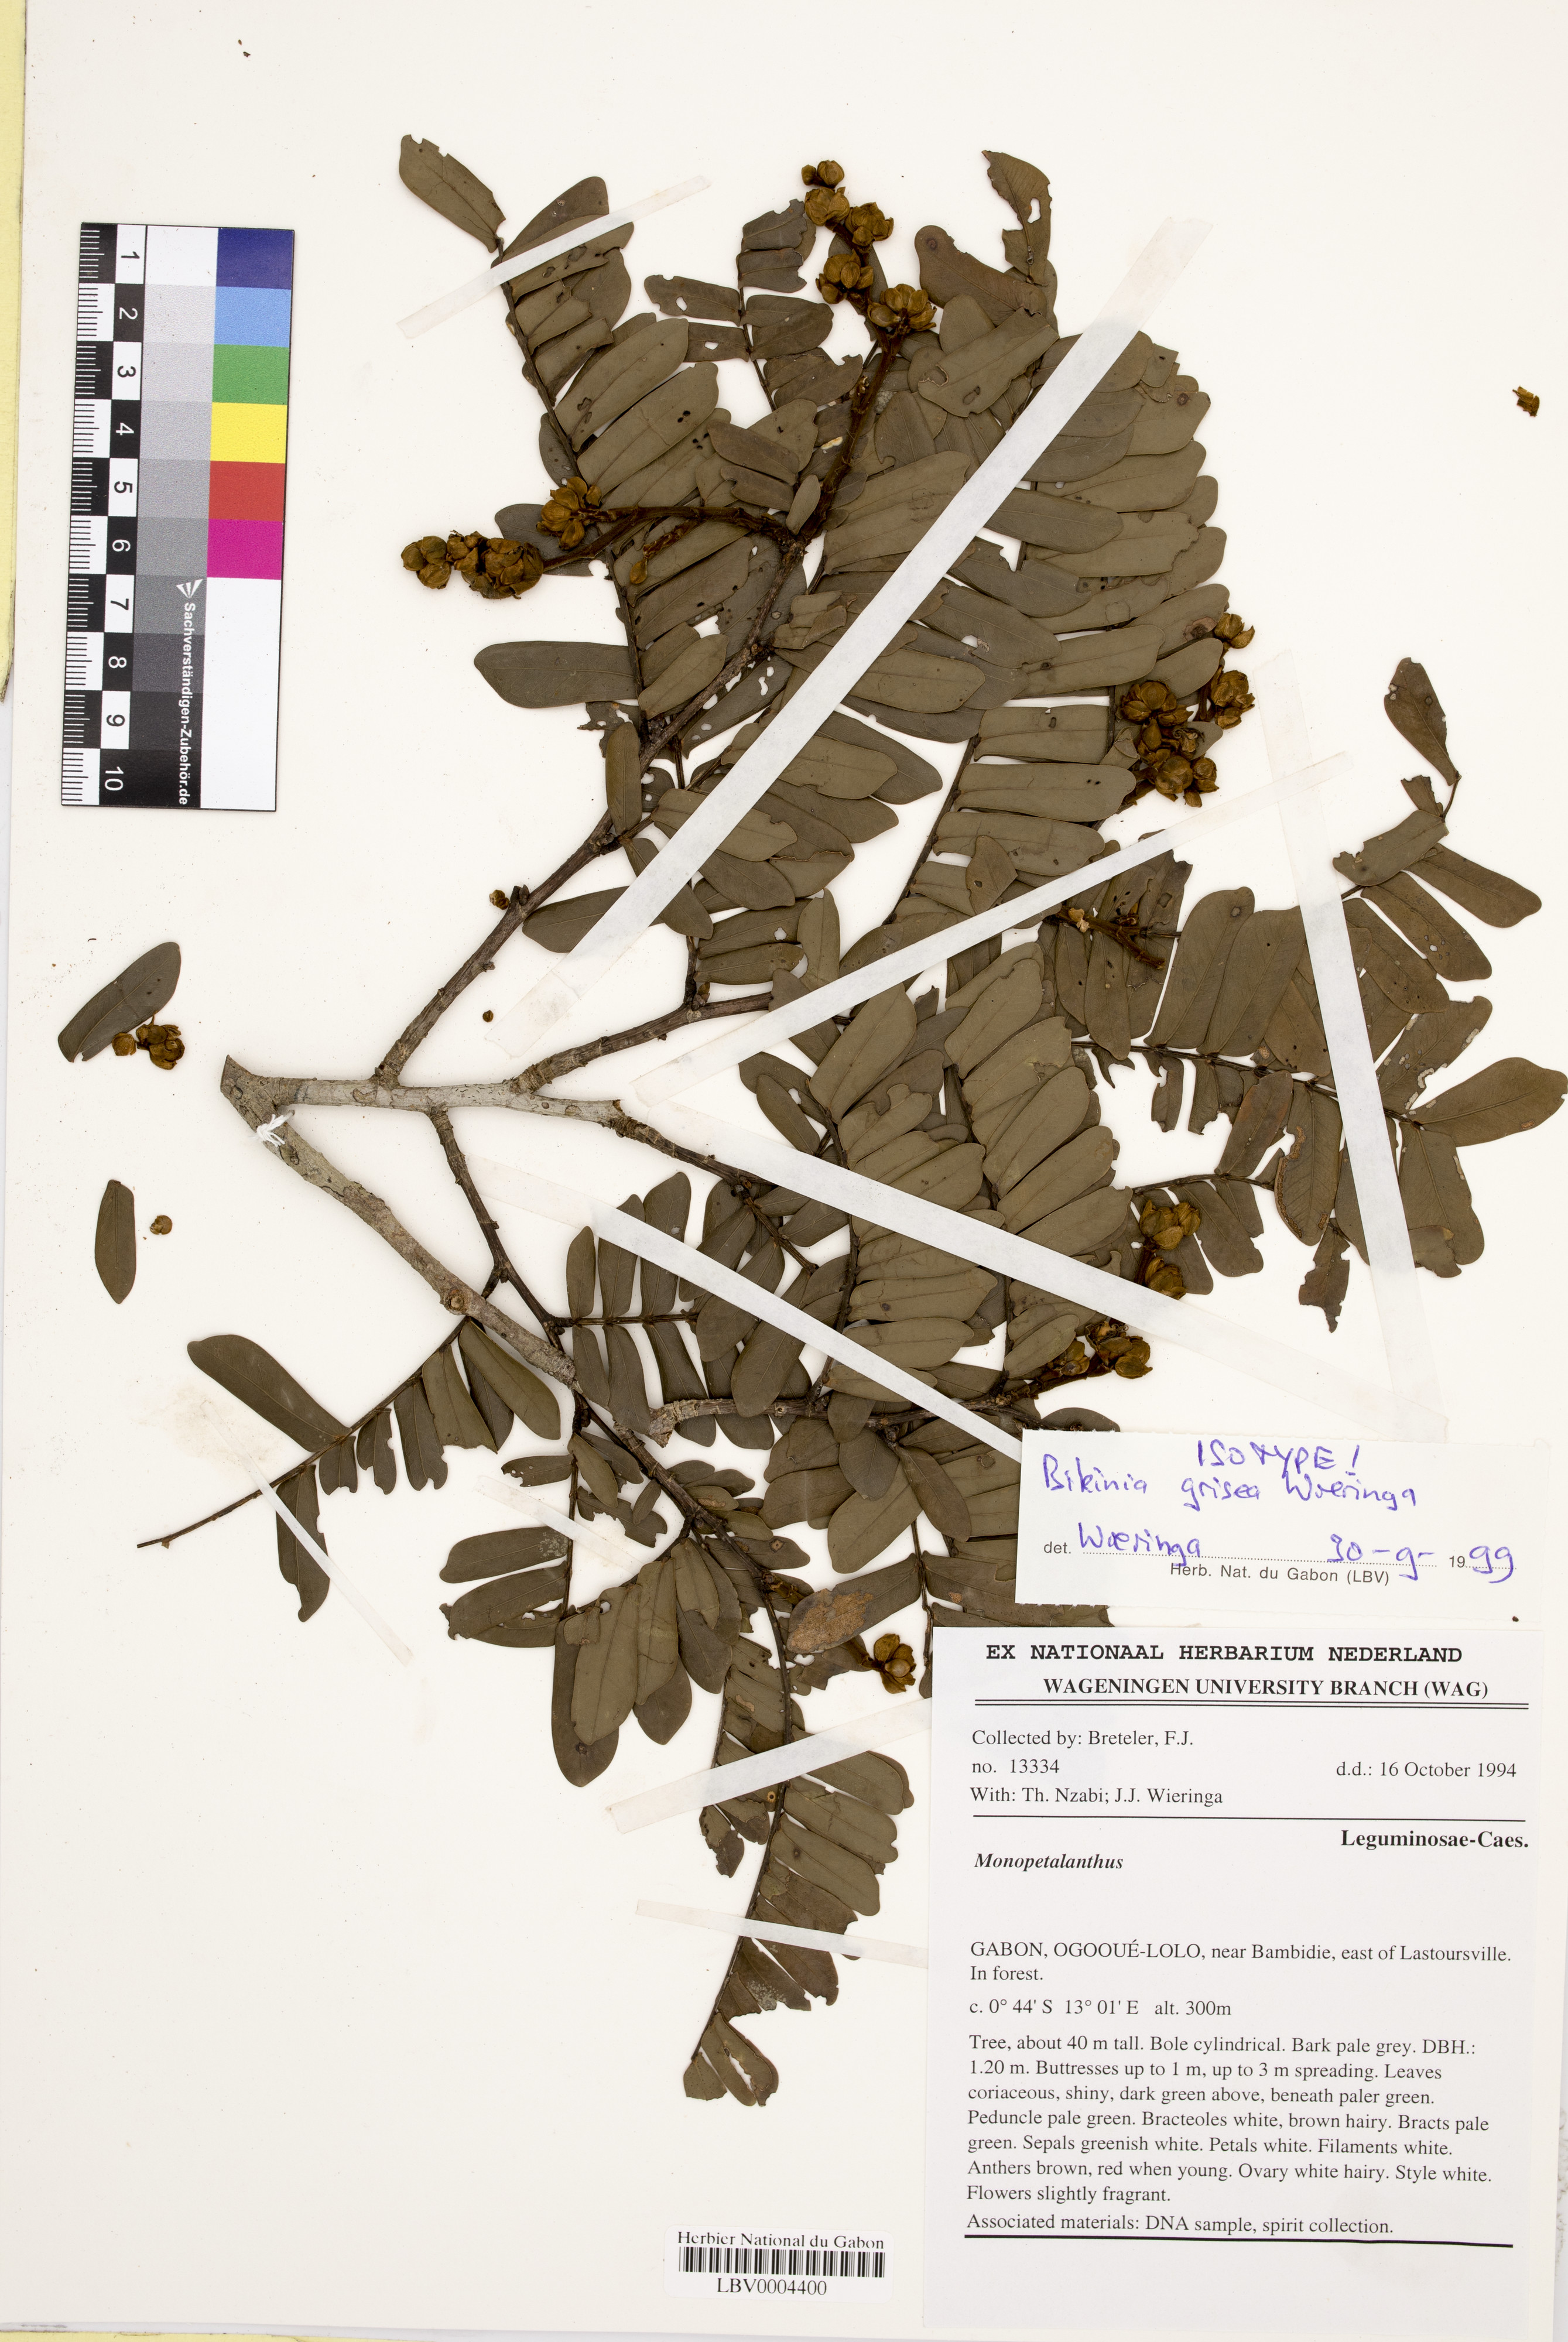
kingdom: Plantae
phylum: Tracheophyta
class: Magnoliopsida
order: Fabales
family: Fabaceae
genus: Bikinia
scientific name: Bikinia grisea
